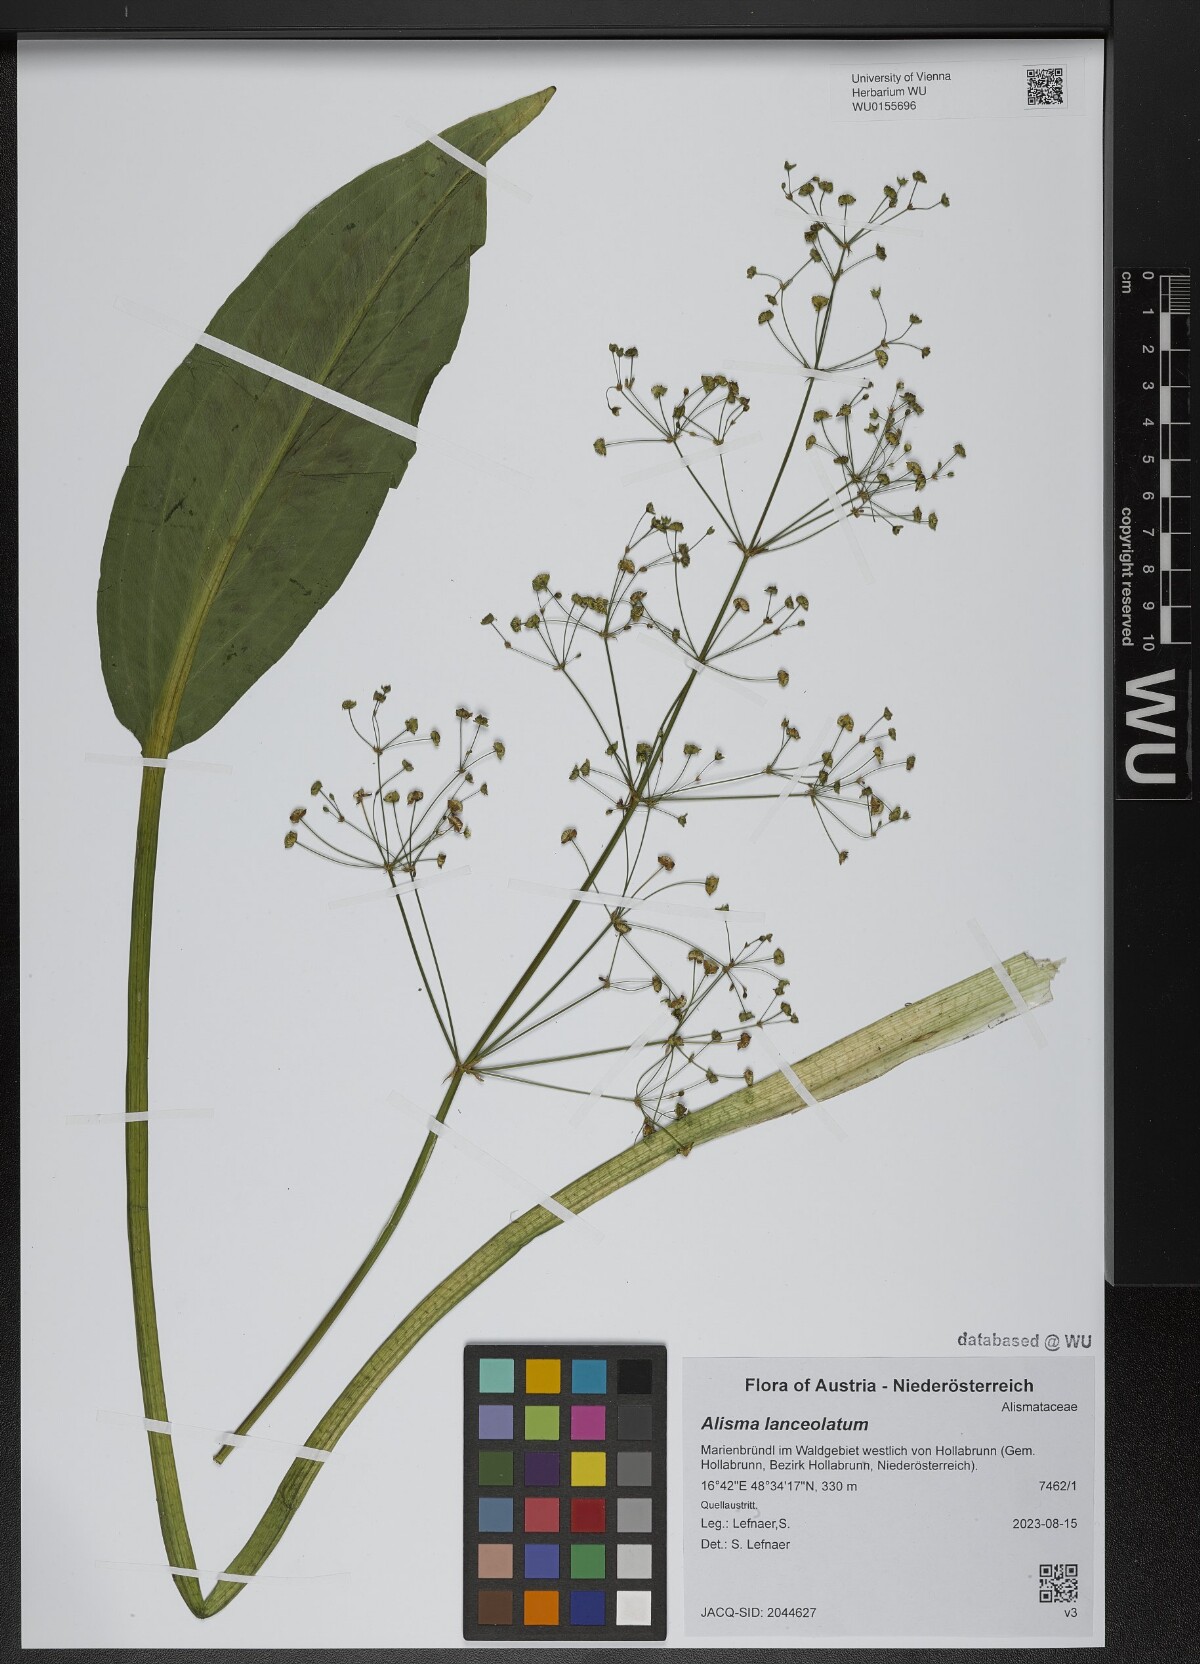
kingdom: Plantae
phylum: Tracheophyta
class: Liliopsida
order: Alismatales
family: Alismataceae
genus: Alisma
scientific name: Alisma lanceolatum
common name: Narrow-leaved water-plantain
